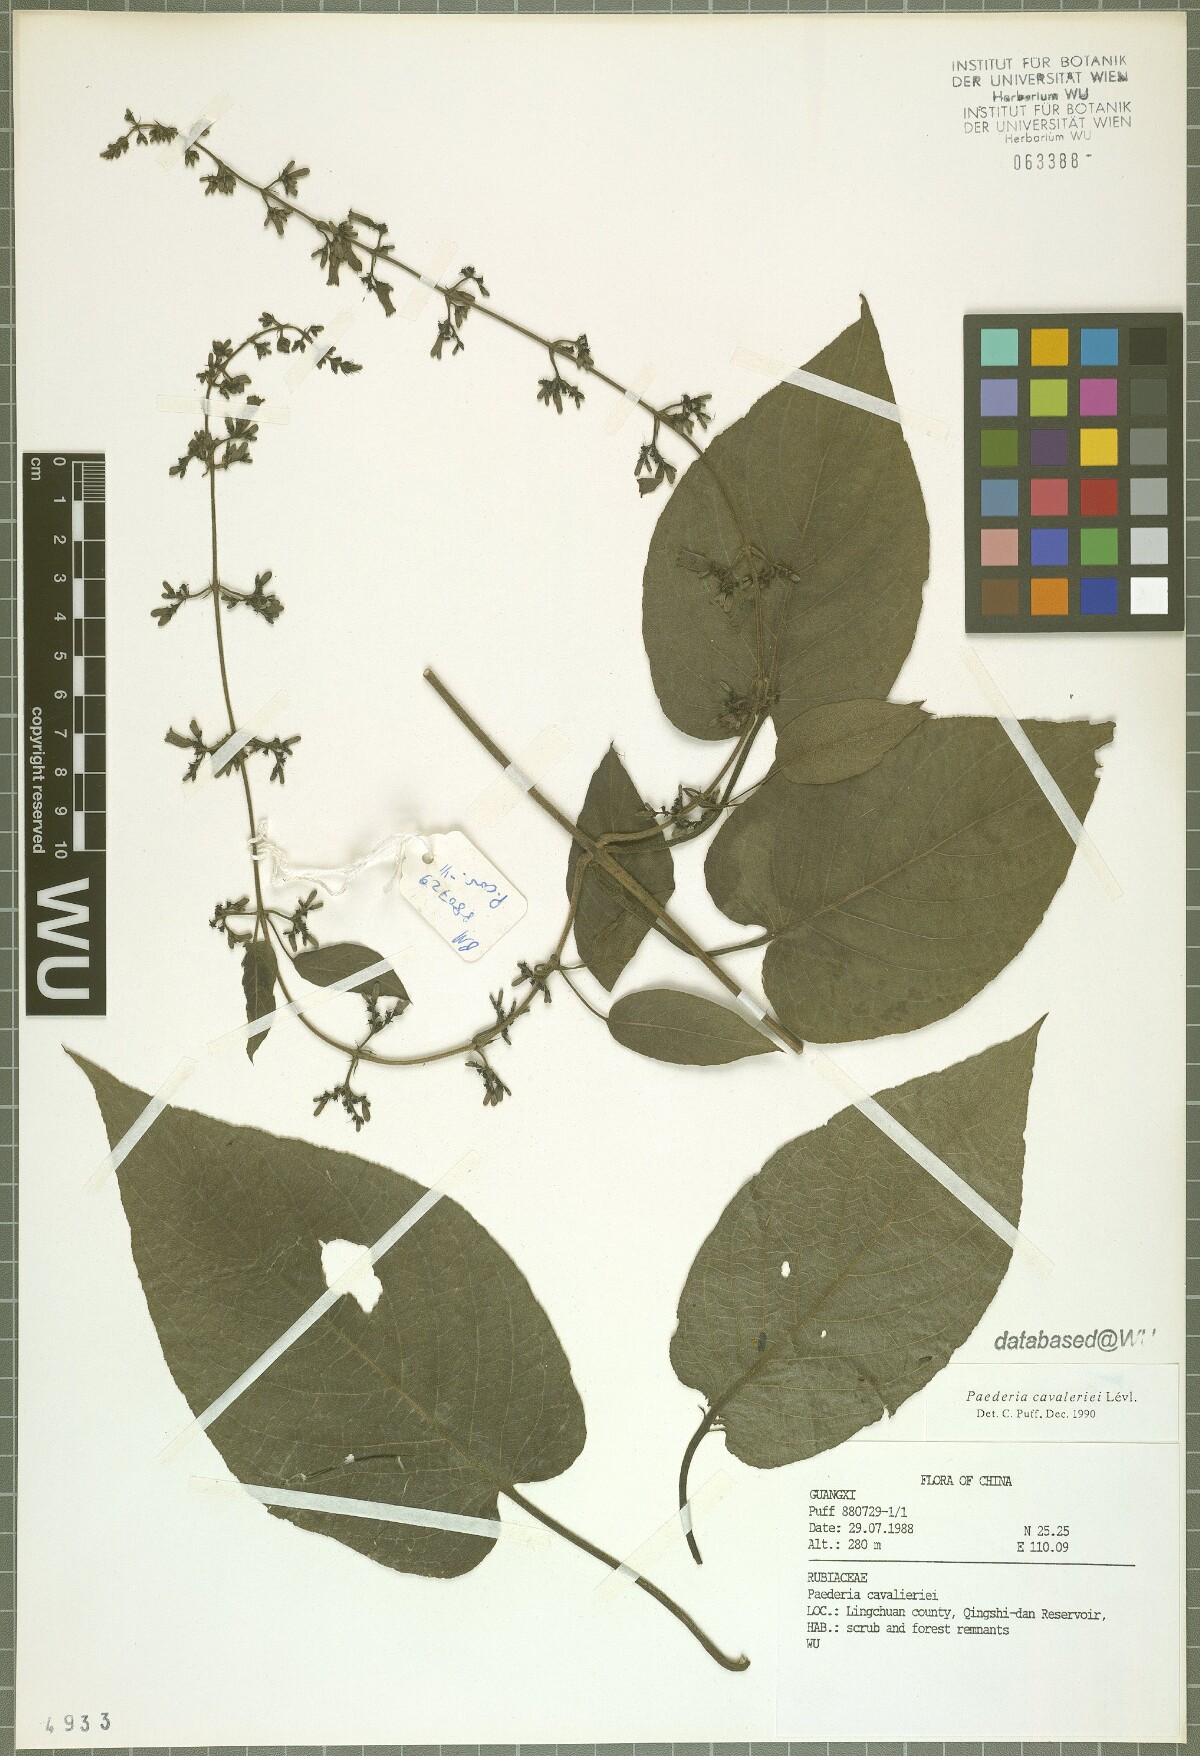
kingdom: Plantae
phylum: Tracheophyta
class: Magnoliopsida
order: Gentianales
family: Rubiaceae
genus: Paederia
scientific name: Paederia cavaleriei
